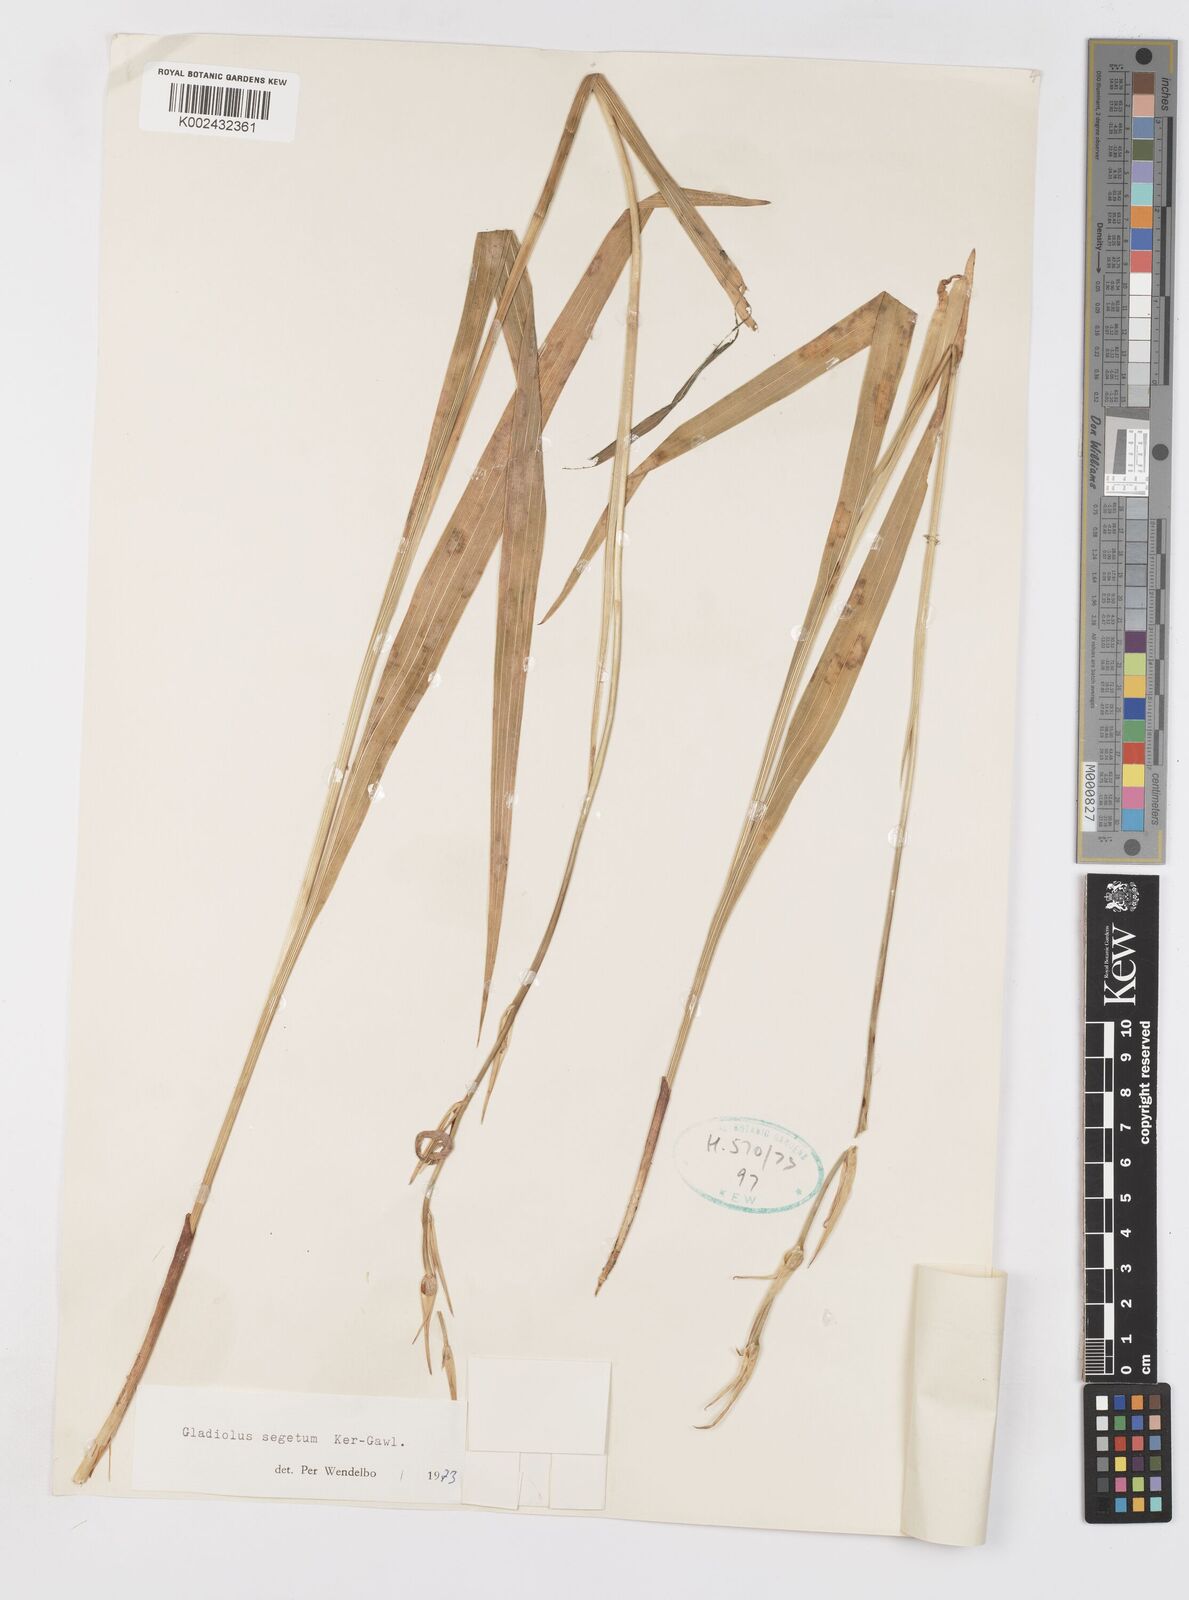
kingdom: Plantae
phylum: Tracheophyta
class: Liliopsida
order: Asparagales
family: Iridaceae
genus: Gladiolus
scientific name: Gladiolus italicus
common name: Field gladiolus
